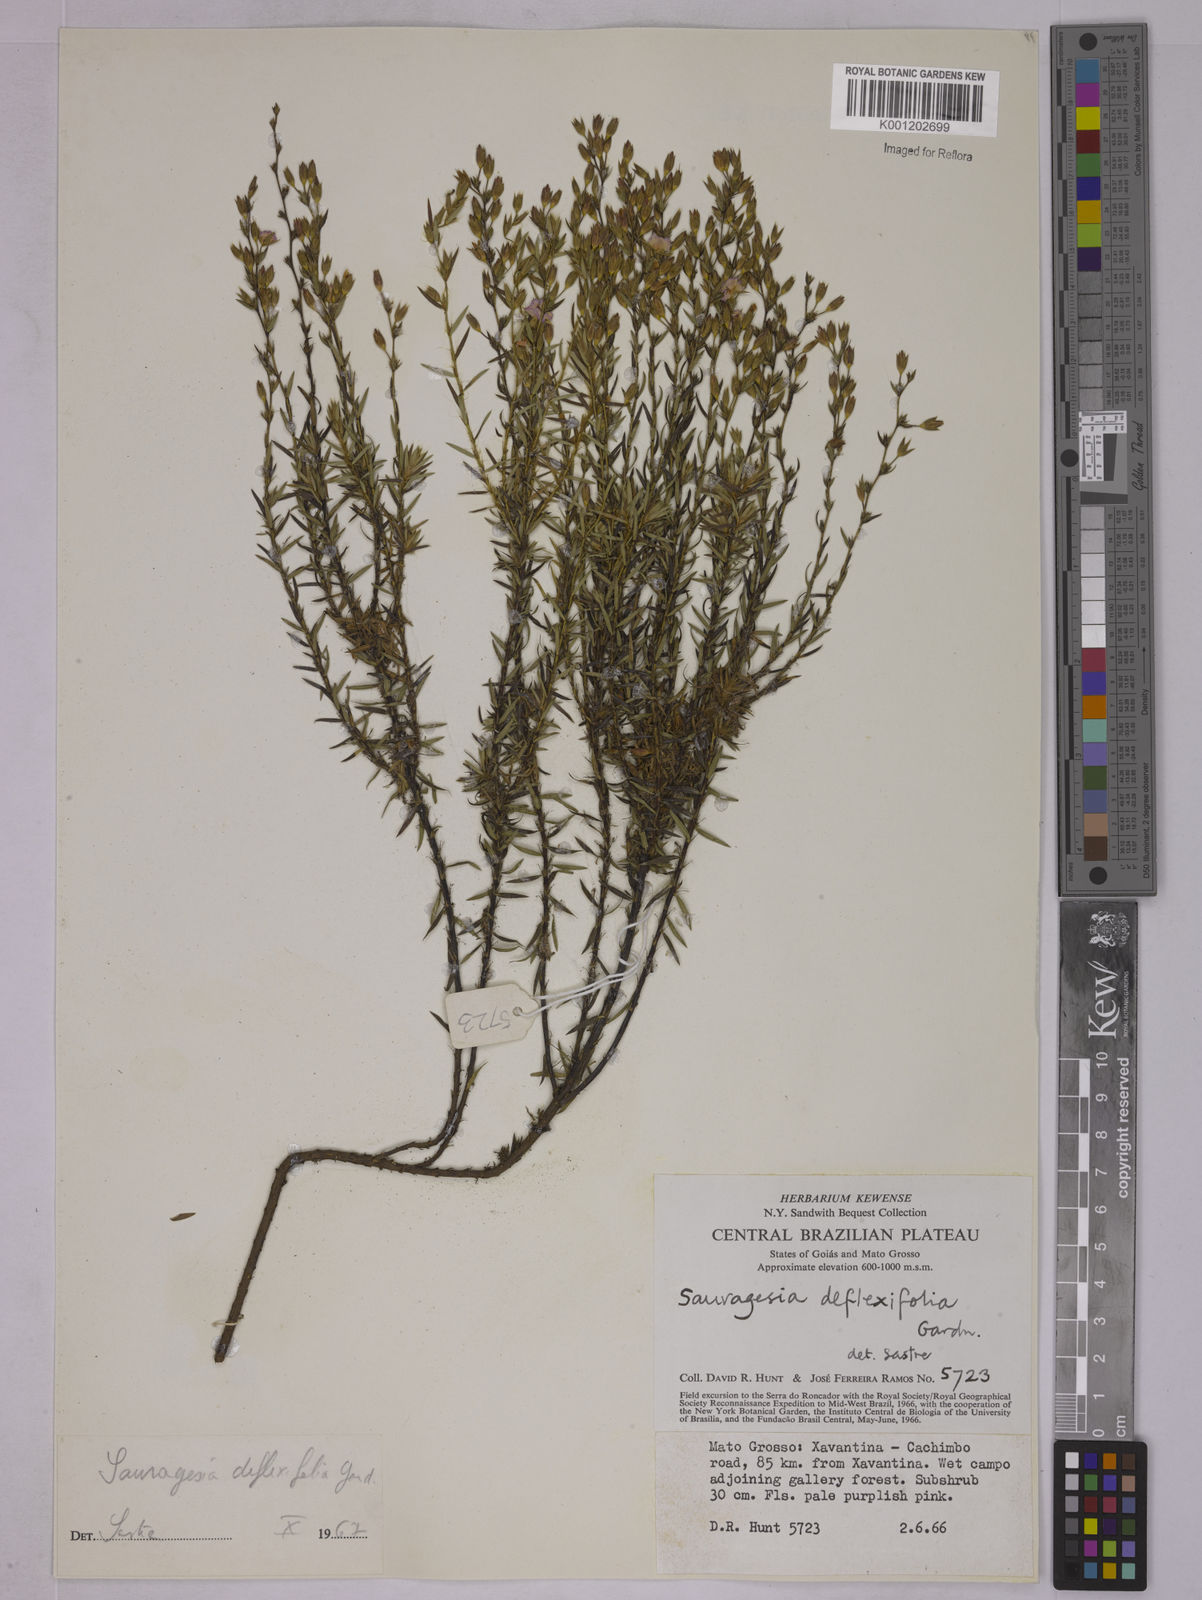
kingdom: Plantae
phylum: Tracheophyta
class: Magnoliopsida
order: Malpighiales
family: Ochnaceae
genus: Sauvagesia
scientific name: Sauvagesia deflexifolia
